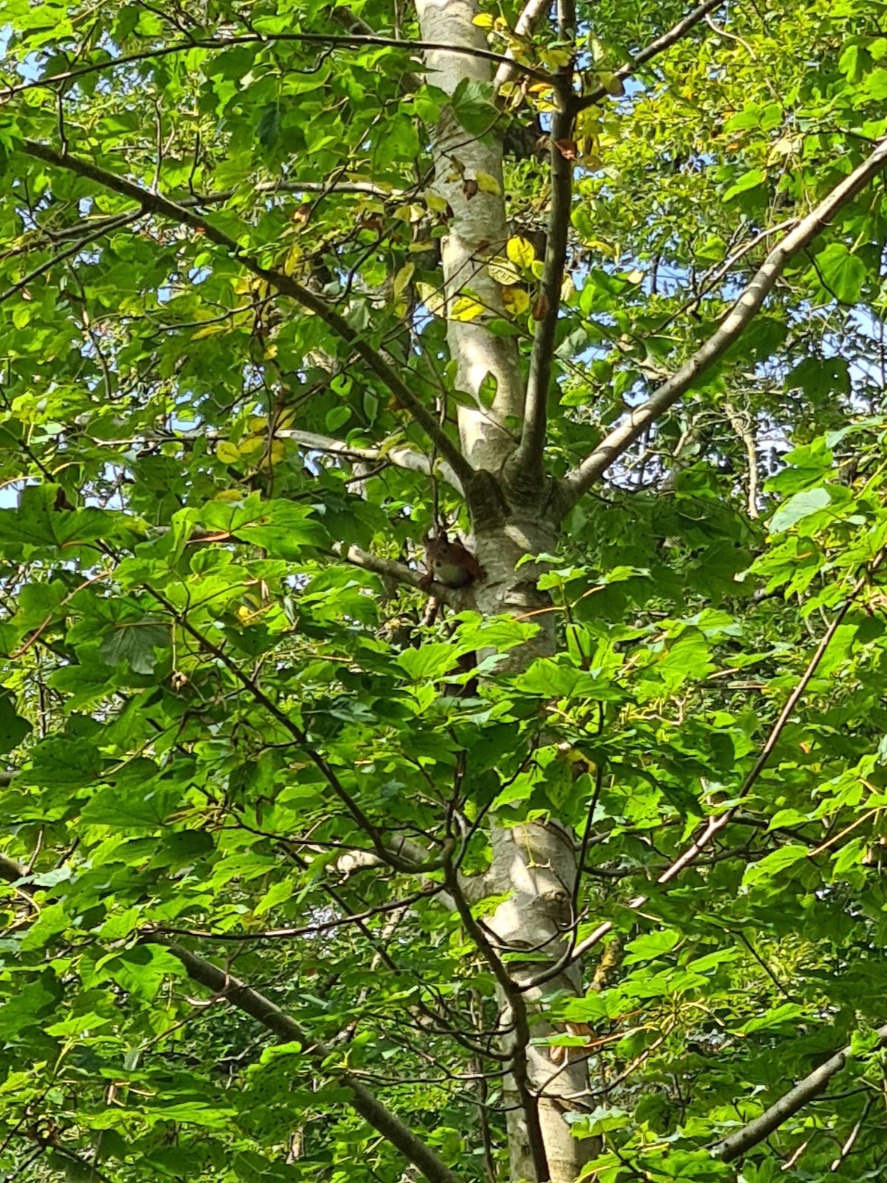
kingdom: Animalia
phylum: Chordata
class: Mammalia
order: Rodentia
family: Sciuridae
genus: Sciurus
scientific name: Sciurus vulgaris
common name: Egern
